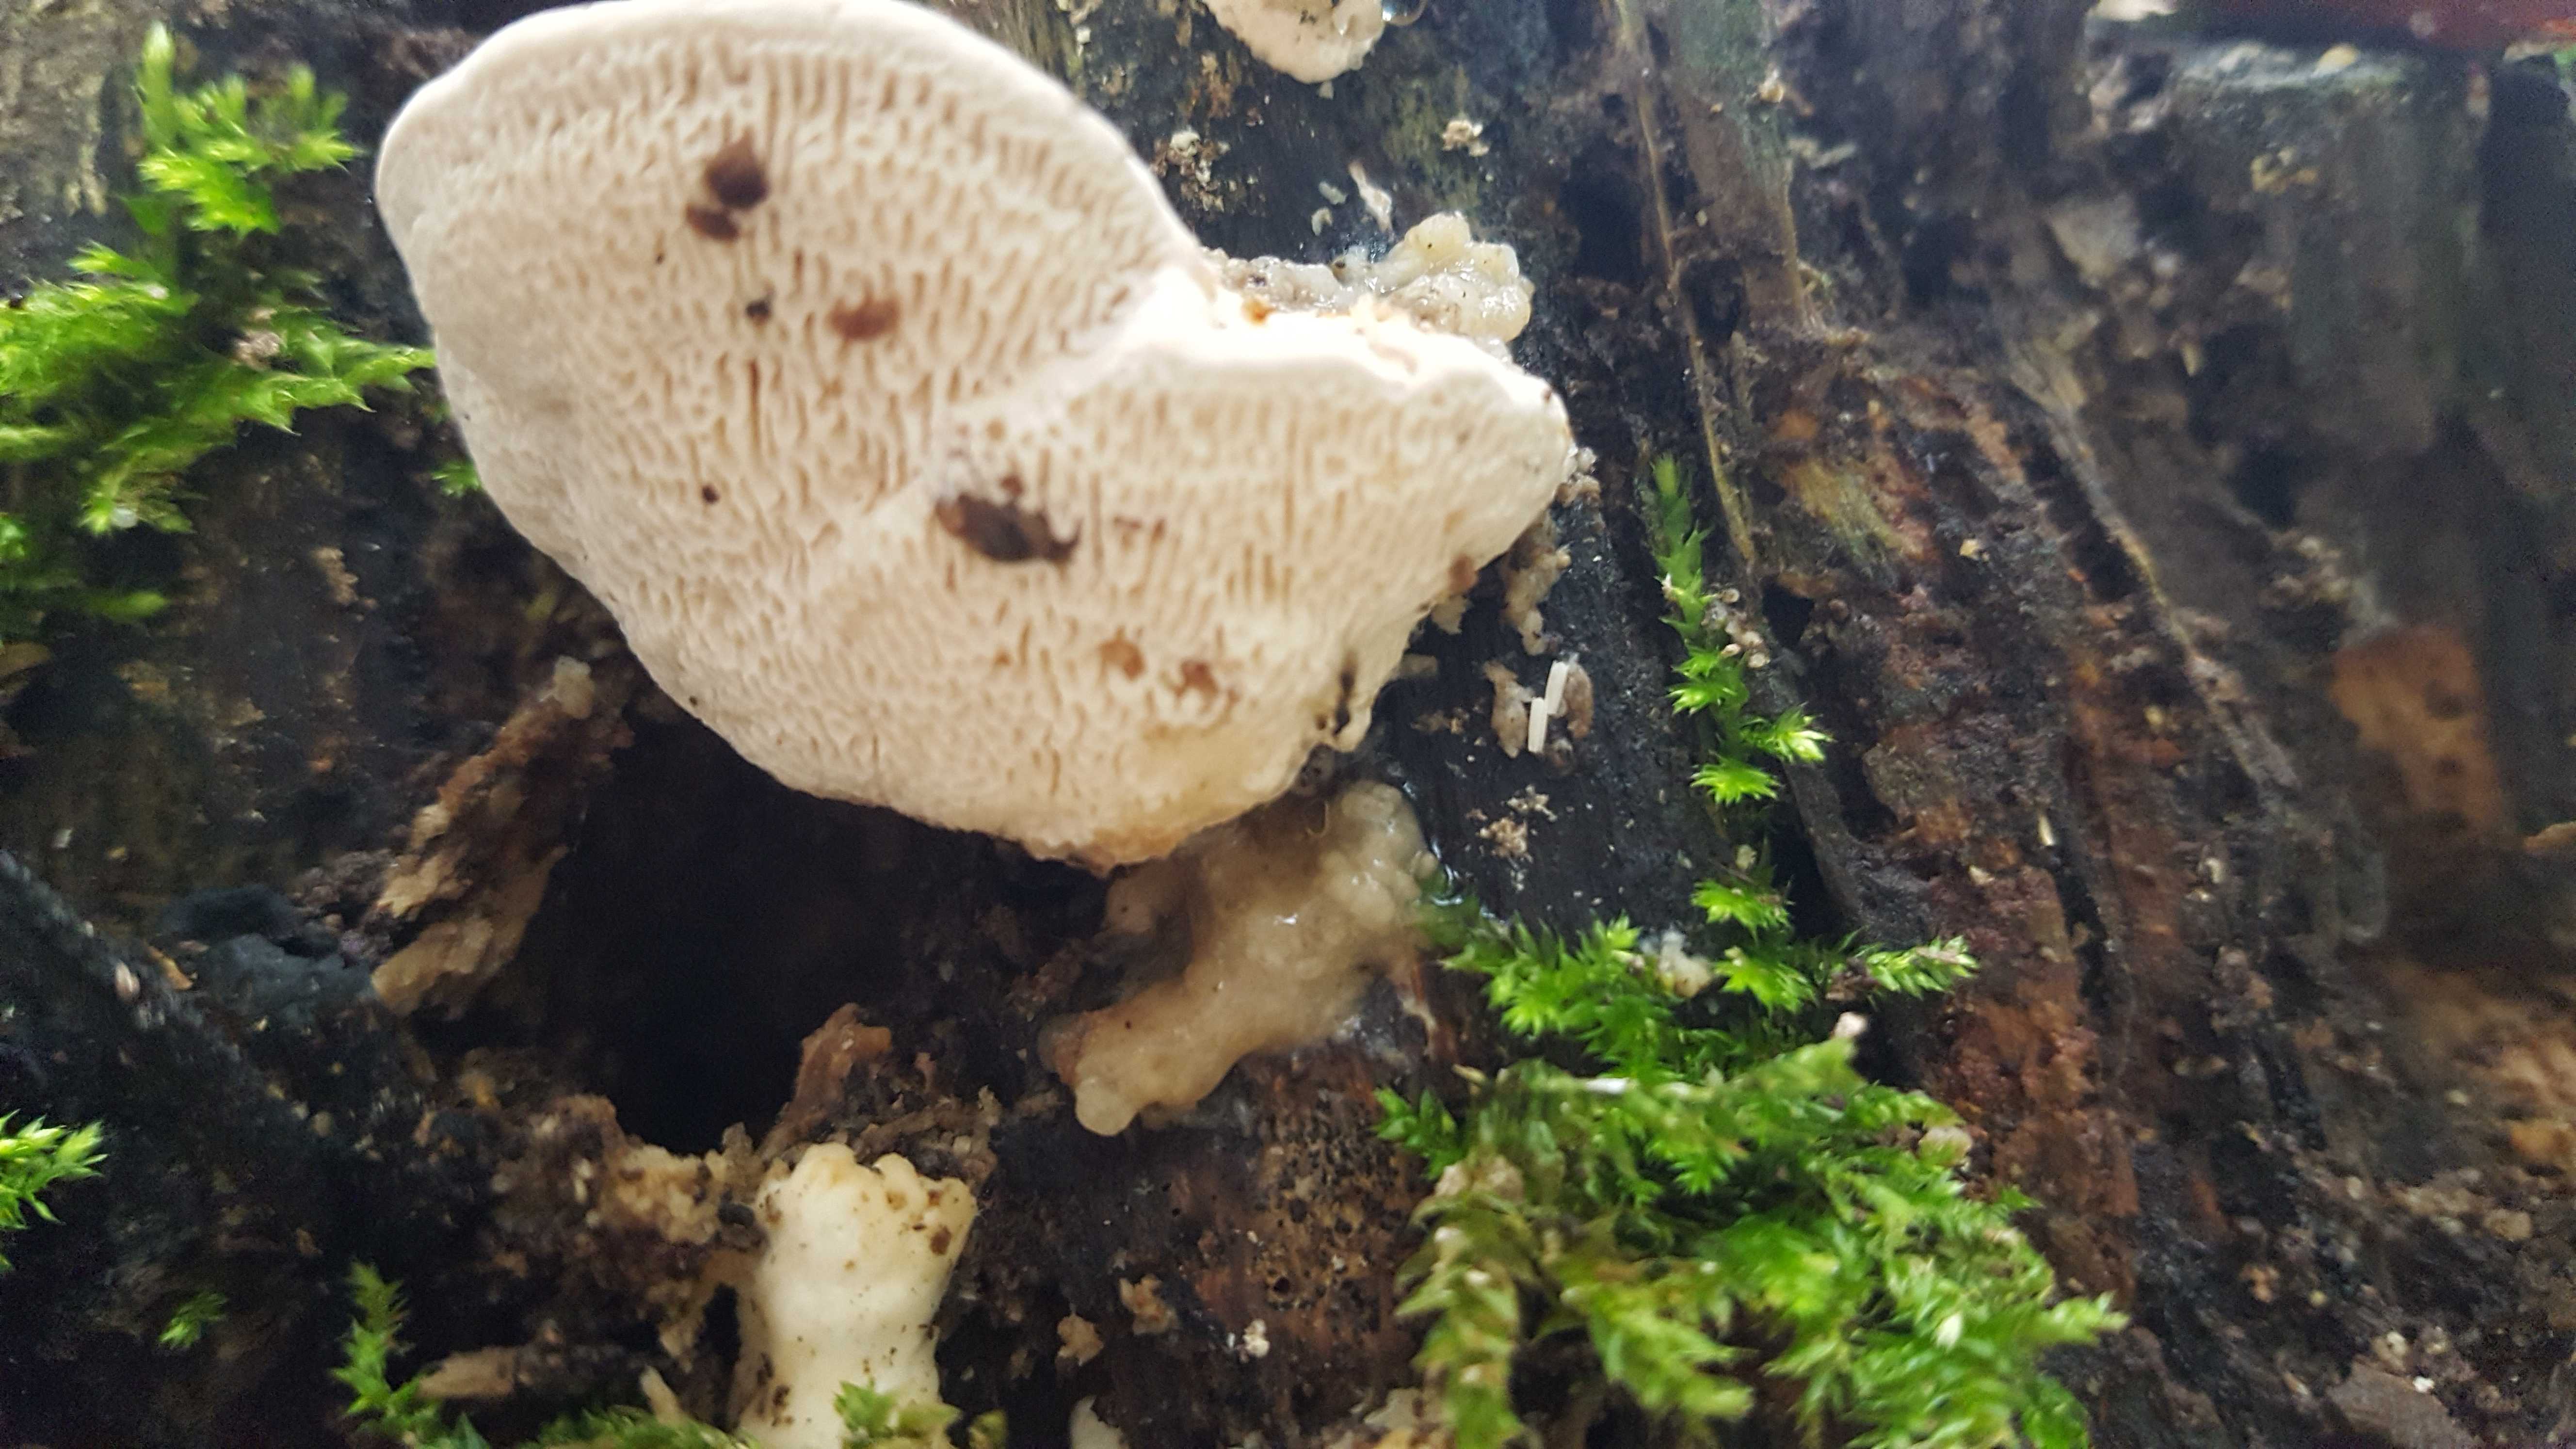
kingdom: Fungi
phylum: Basidiomycota
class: Agaricomycetes
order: Polyporales
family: Polyporaceae
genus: Trametes
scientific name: Trametes gibbosa
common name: puklet læderporesvamp
